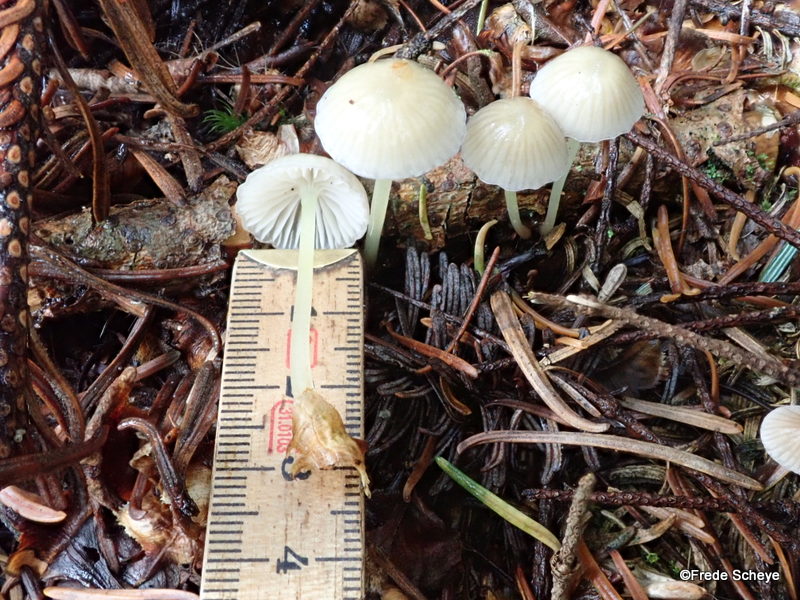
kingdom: Fungi
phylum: Basidiomycota
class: Agaricomycetes
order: Agaricales
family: Mycenaceae
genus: Mycena
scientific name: Mycena epipterygia
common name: gulstokket huesvamp
